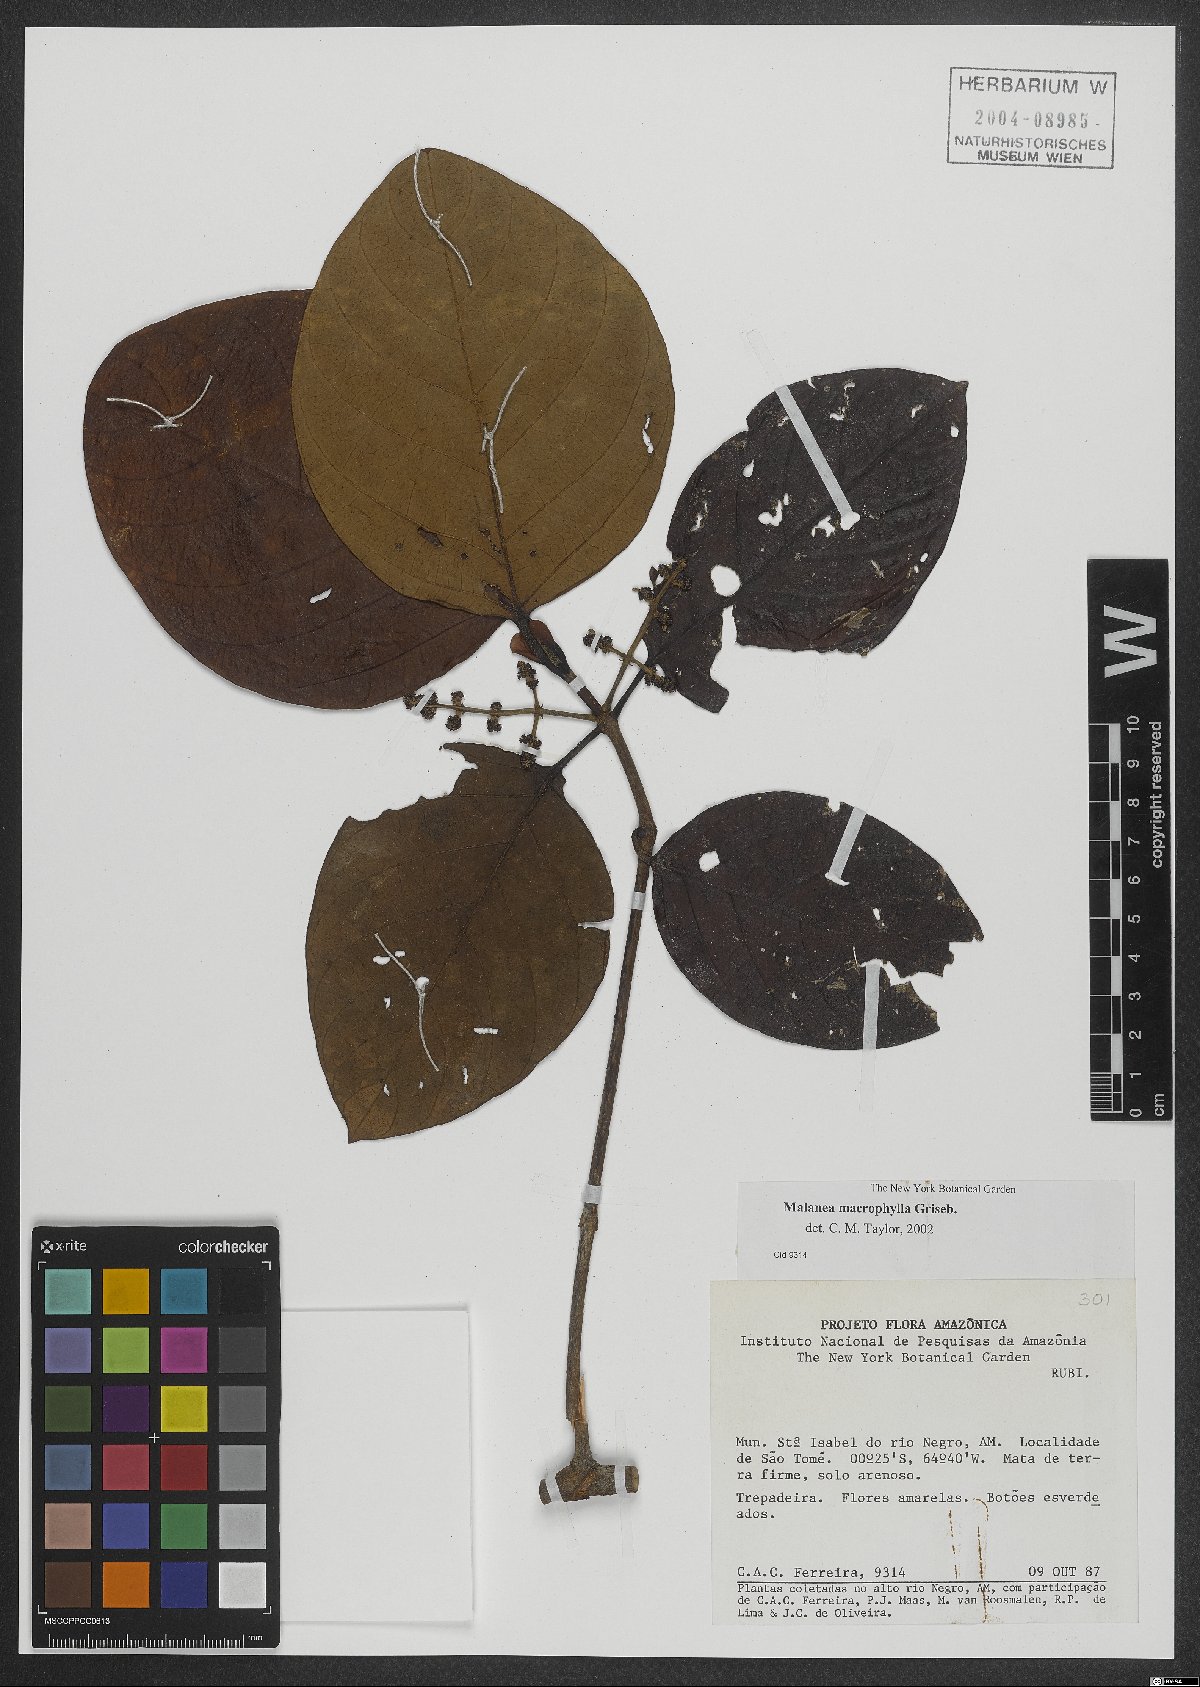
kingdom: Plantae
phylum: Tracheophyta
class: Magnoliopsida
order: Gentianales
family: Rubiaceae
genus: Malanea
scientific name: Malanea glabra
